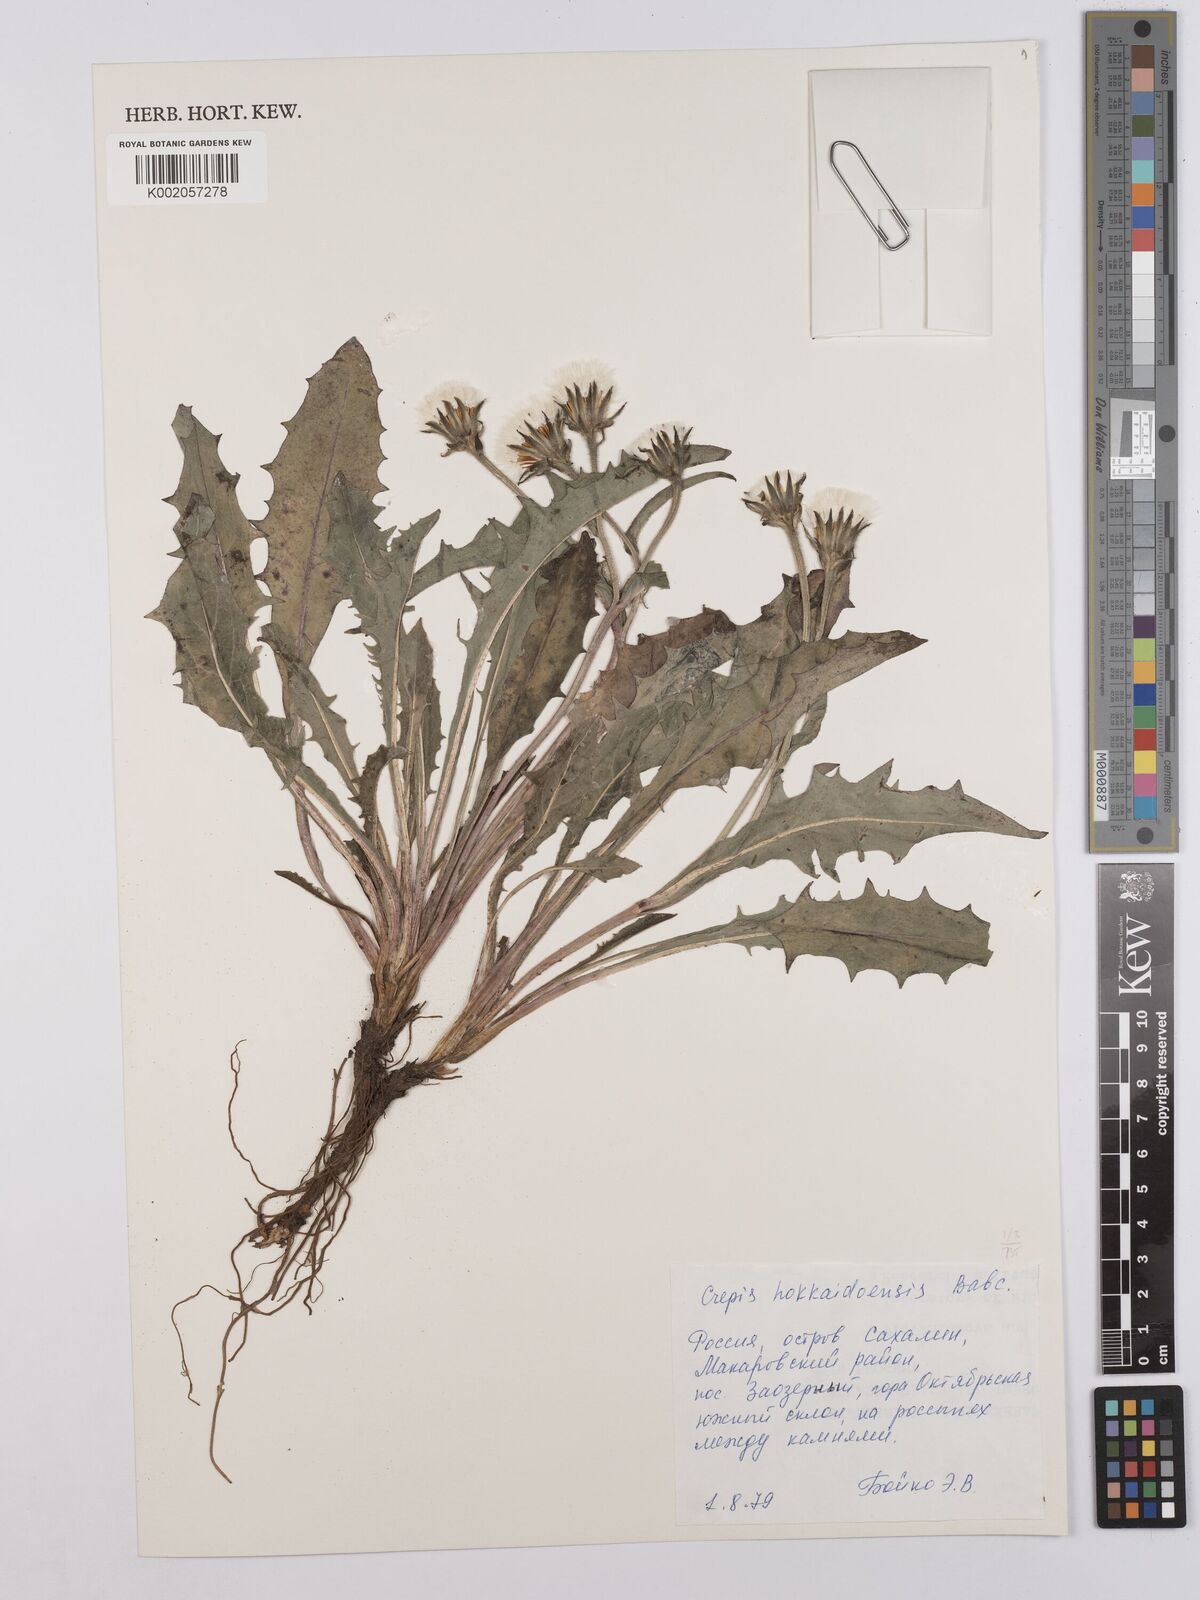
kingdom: Plantae
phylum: Tracheophyta
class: Magnoliopsida
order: Asterales
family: Asteraceae
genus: Crepis
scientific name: Crepis hokkaidoensis
